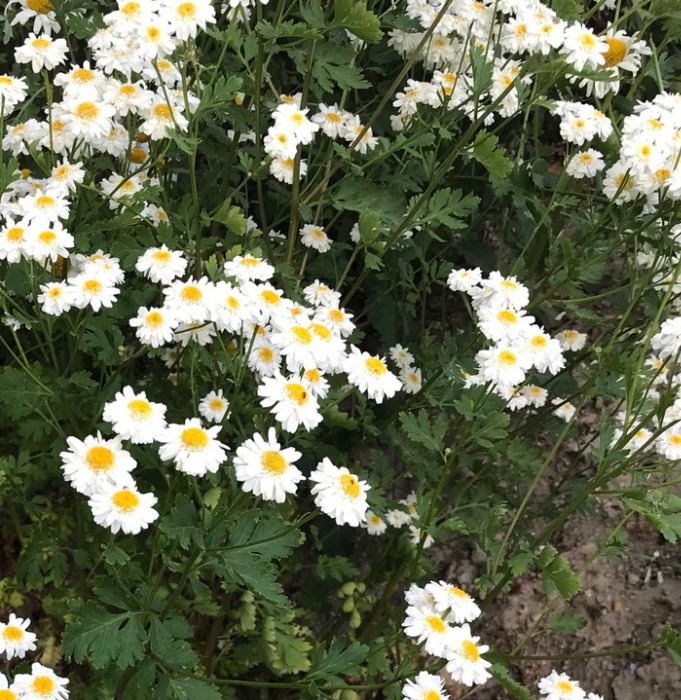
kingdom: Plantae
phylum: Tracheophyta
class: Magnoliopsida
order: Asterales
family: Asteraceae
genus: Tanacetum
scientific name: Tanacetum parthenium
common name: Matrem
